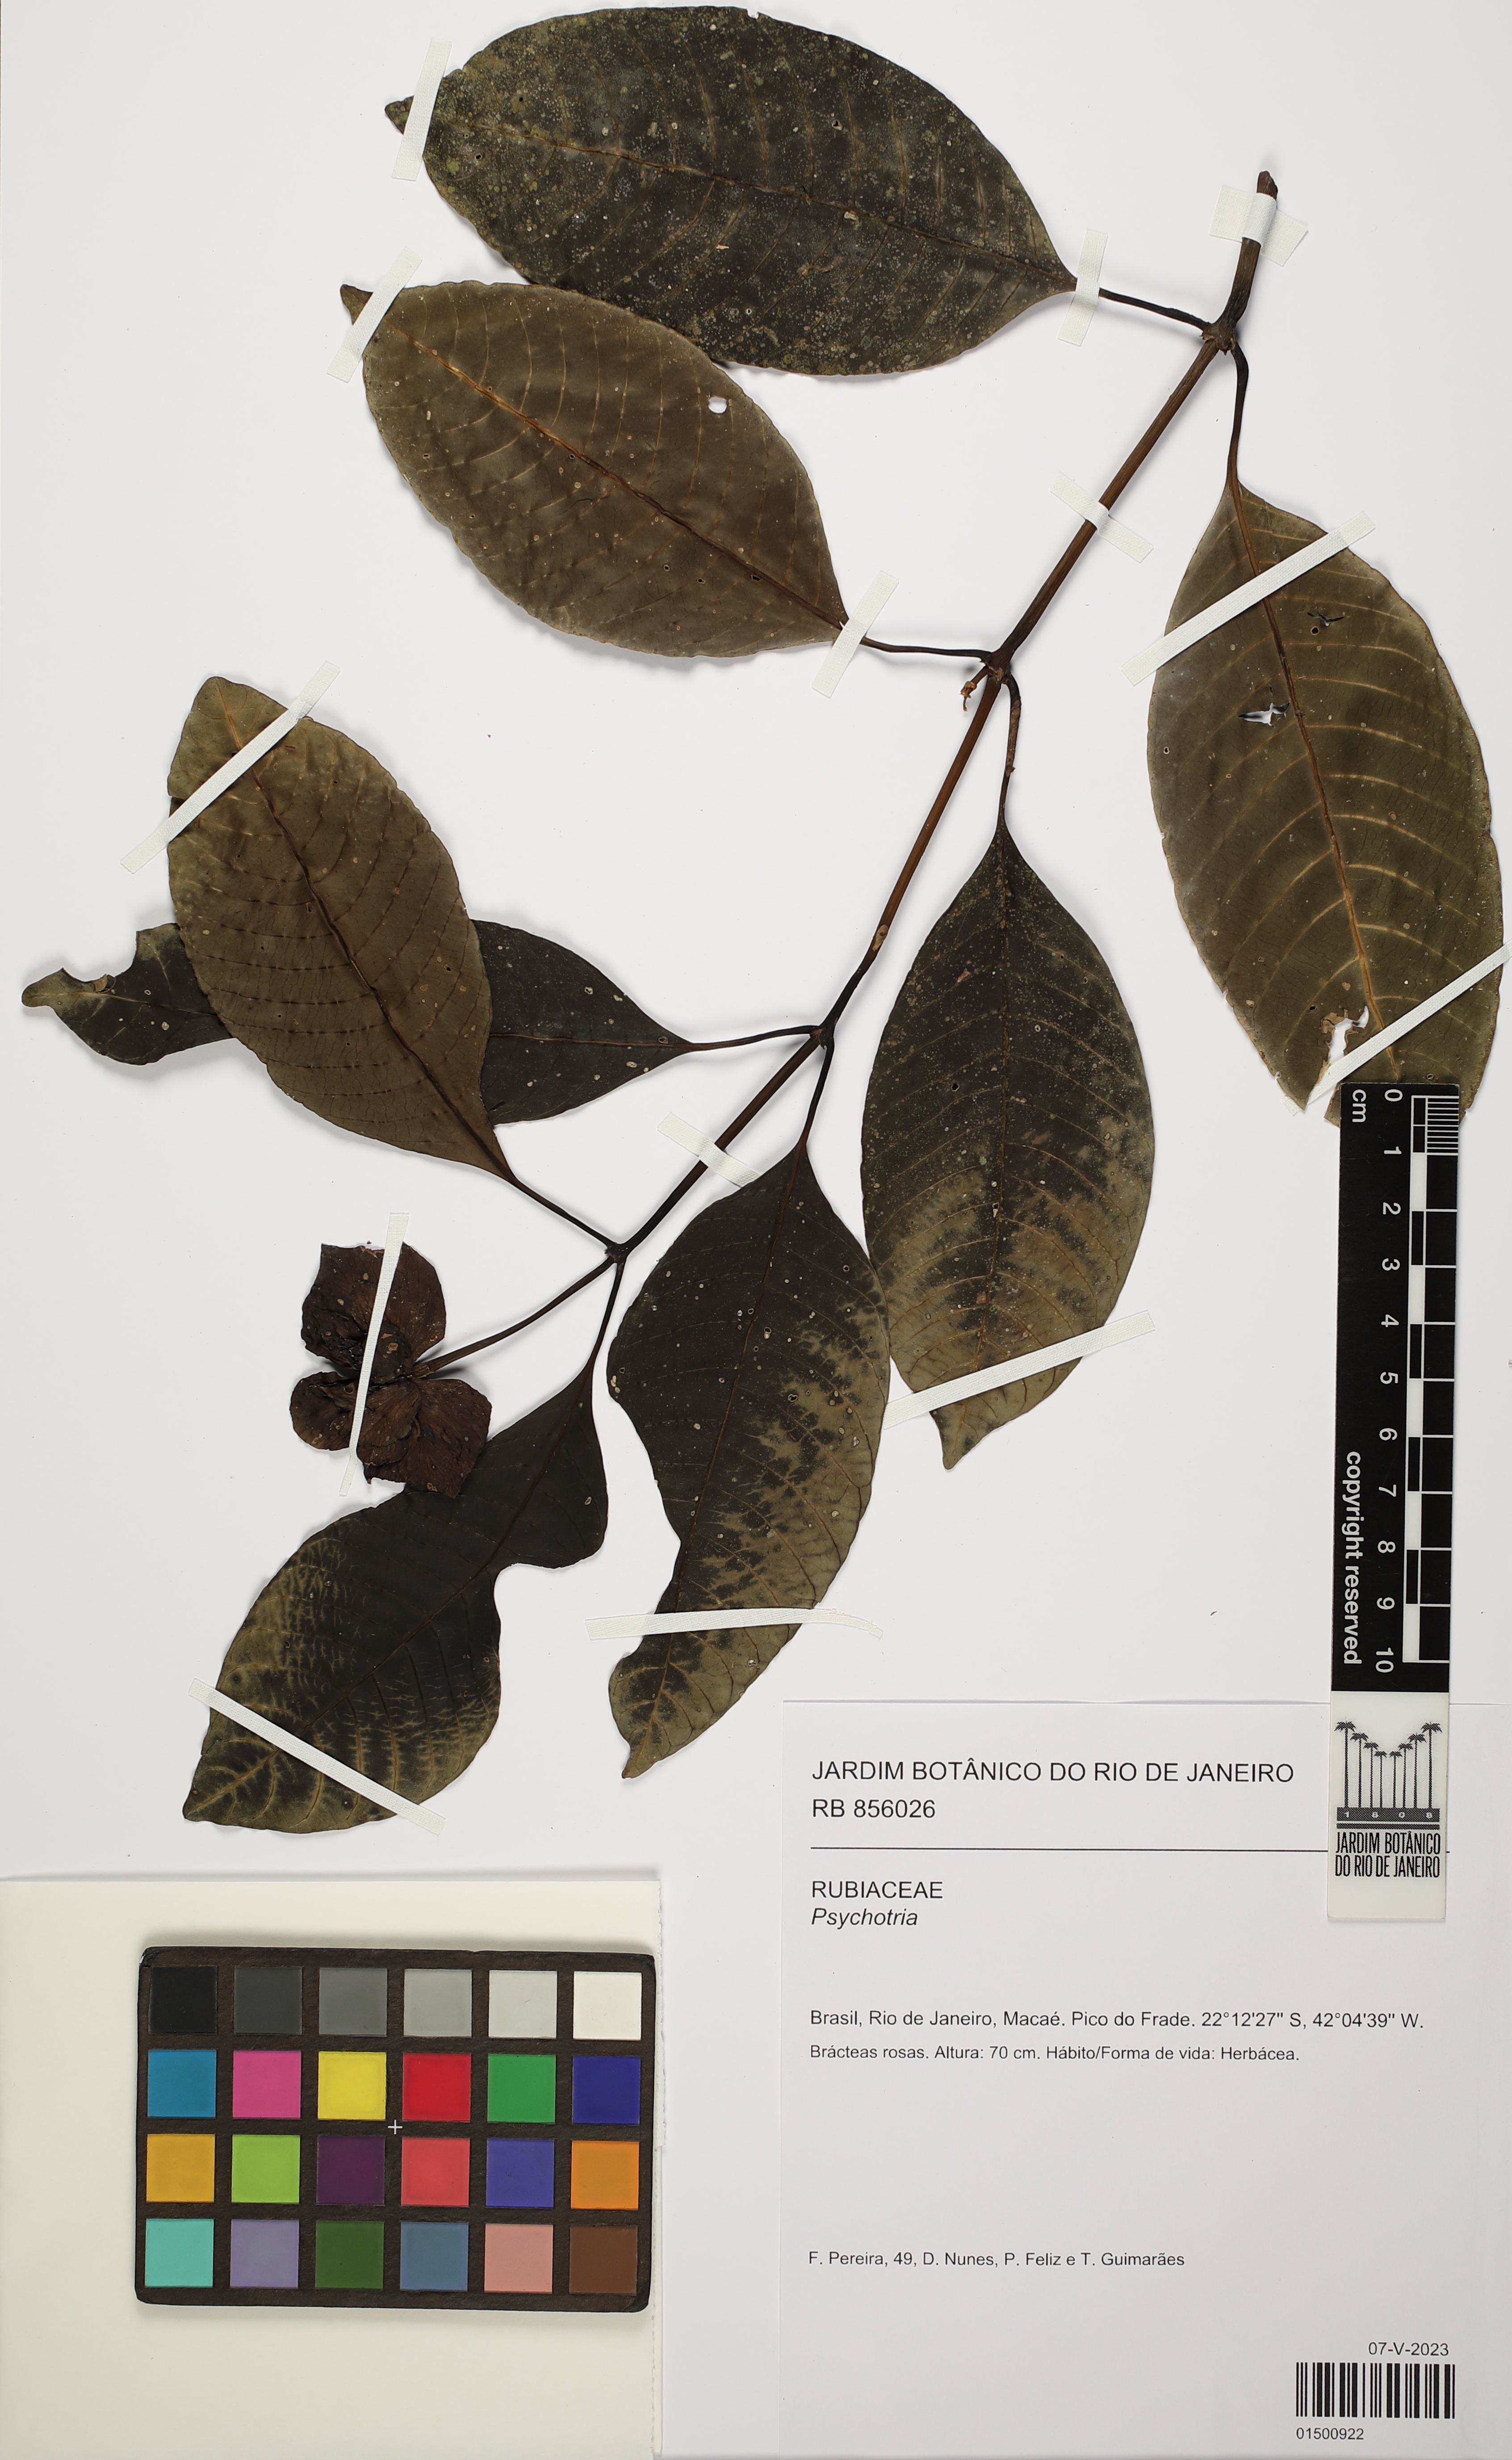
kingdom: Plantae
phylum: Tracheophyta
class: Magnoliopsida
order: Gentianales
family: Rubiaceae
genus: Psychotria
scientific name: Psychotria
